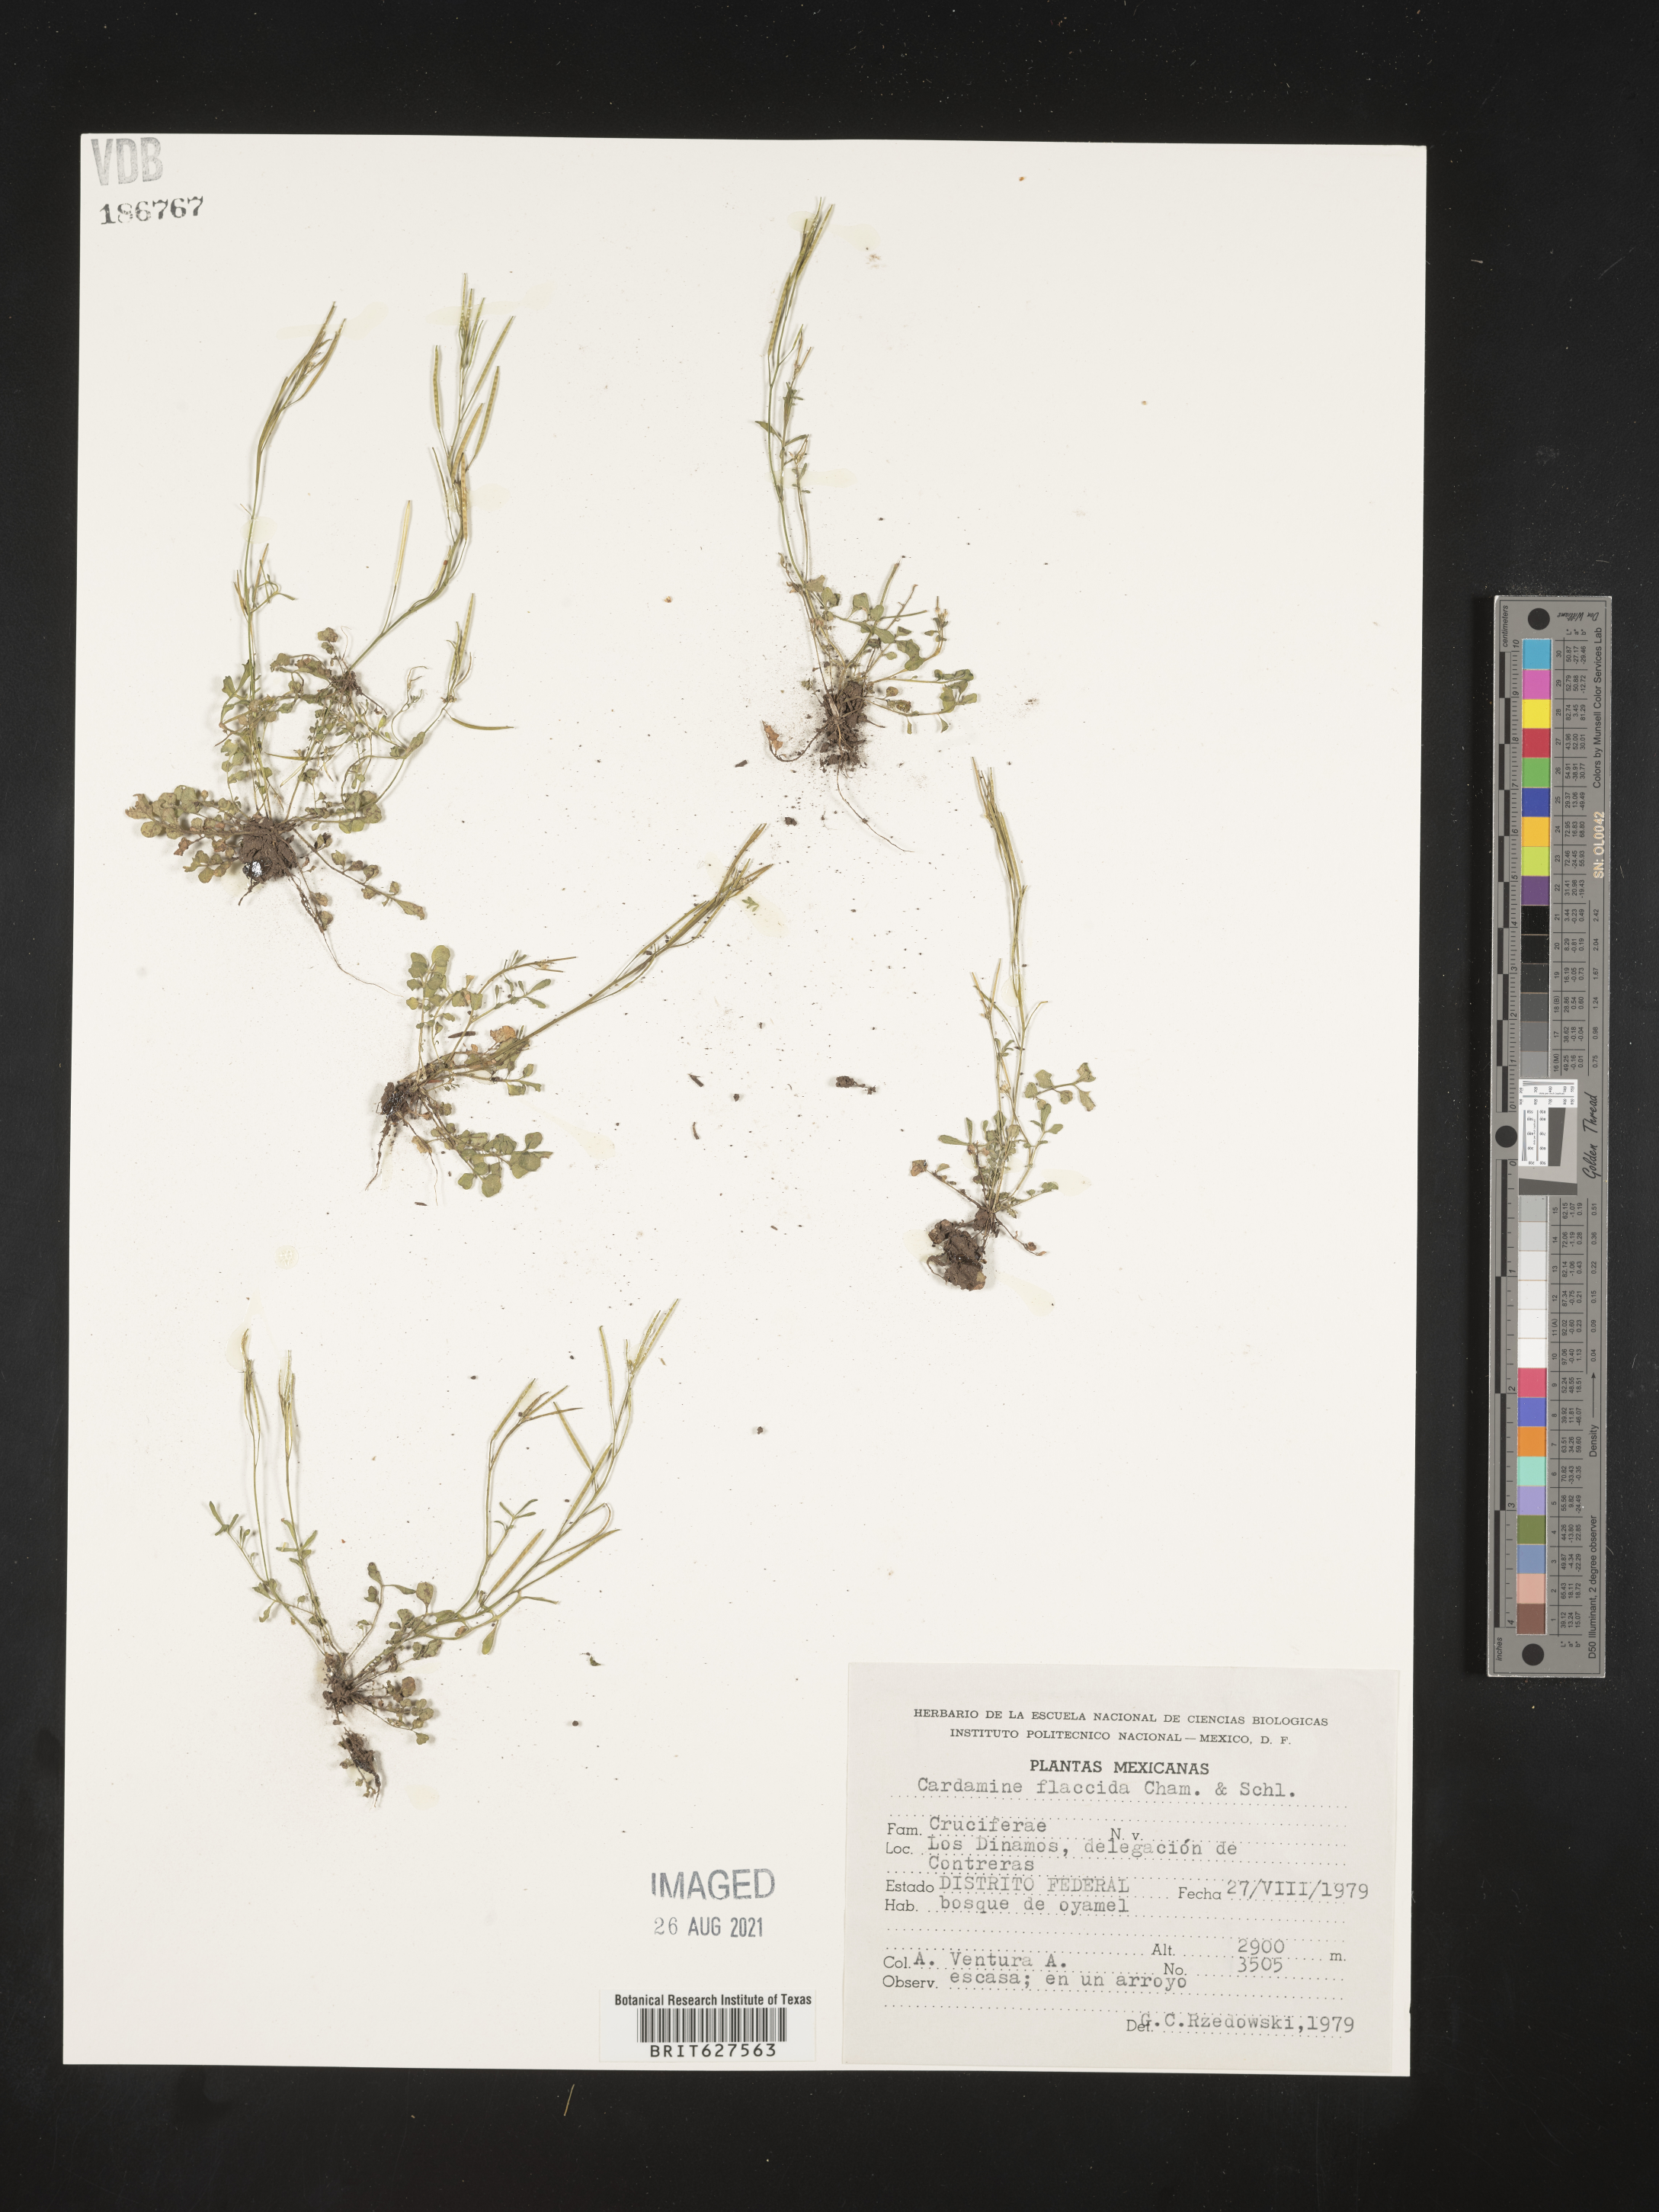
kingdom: Plantae
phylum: Tracheophyta
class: Magnoliopsida
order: Brassicales
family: Brassicaceae
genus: Coronopus
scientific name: Coronopus
